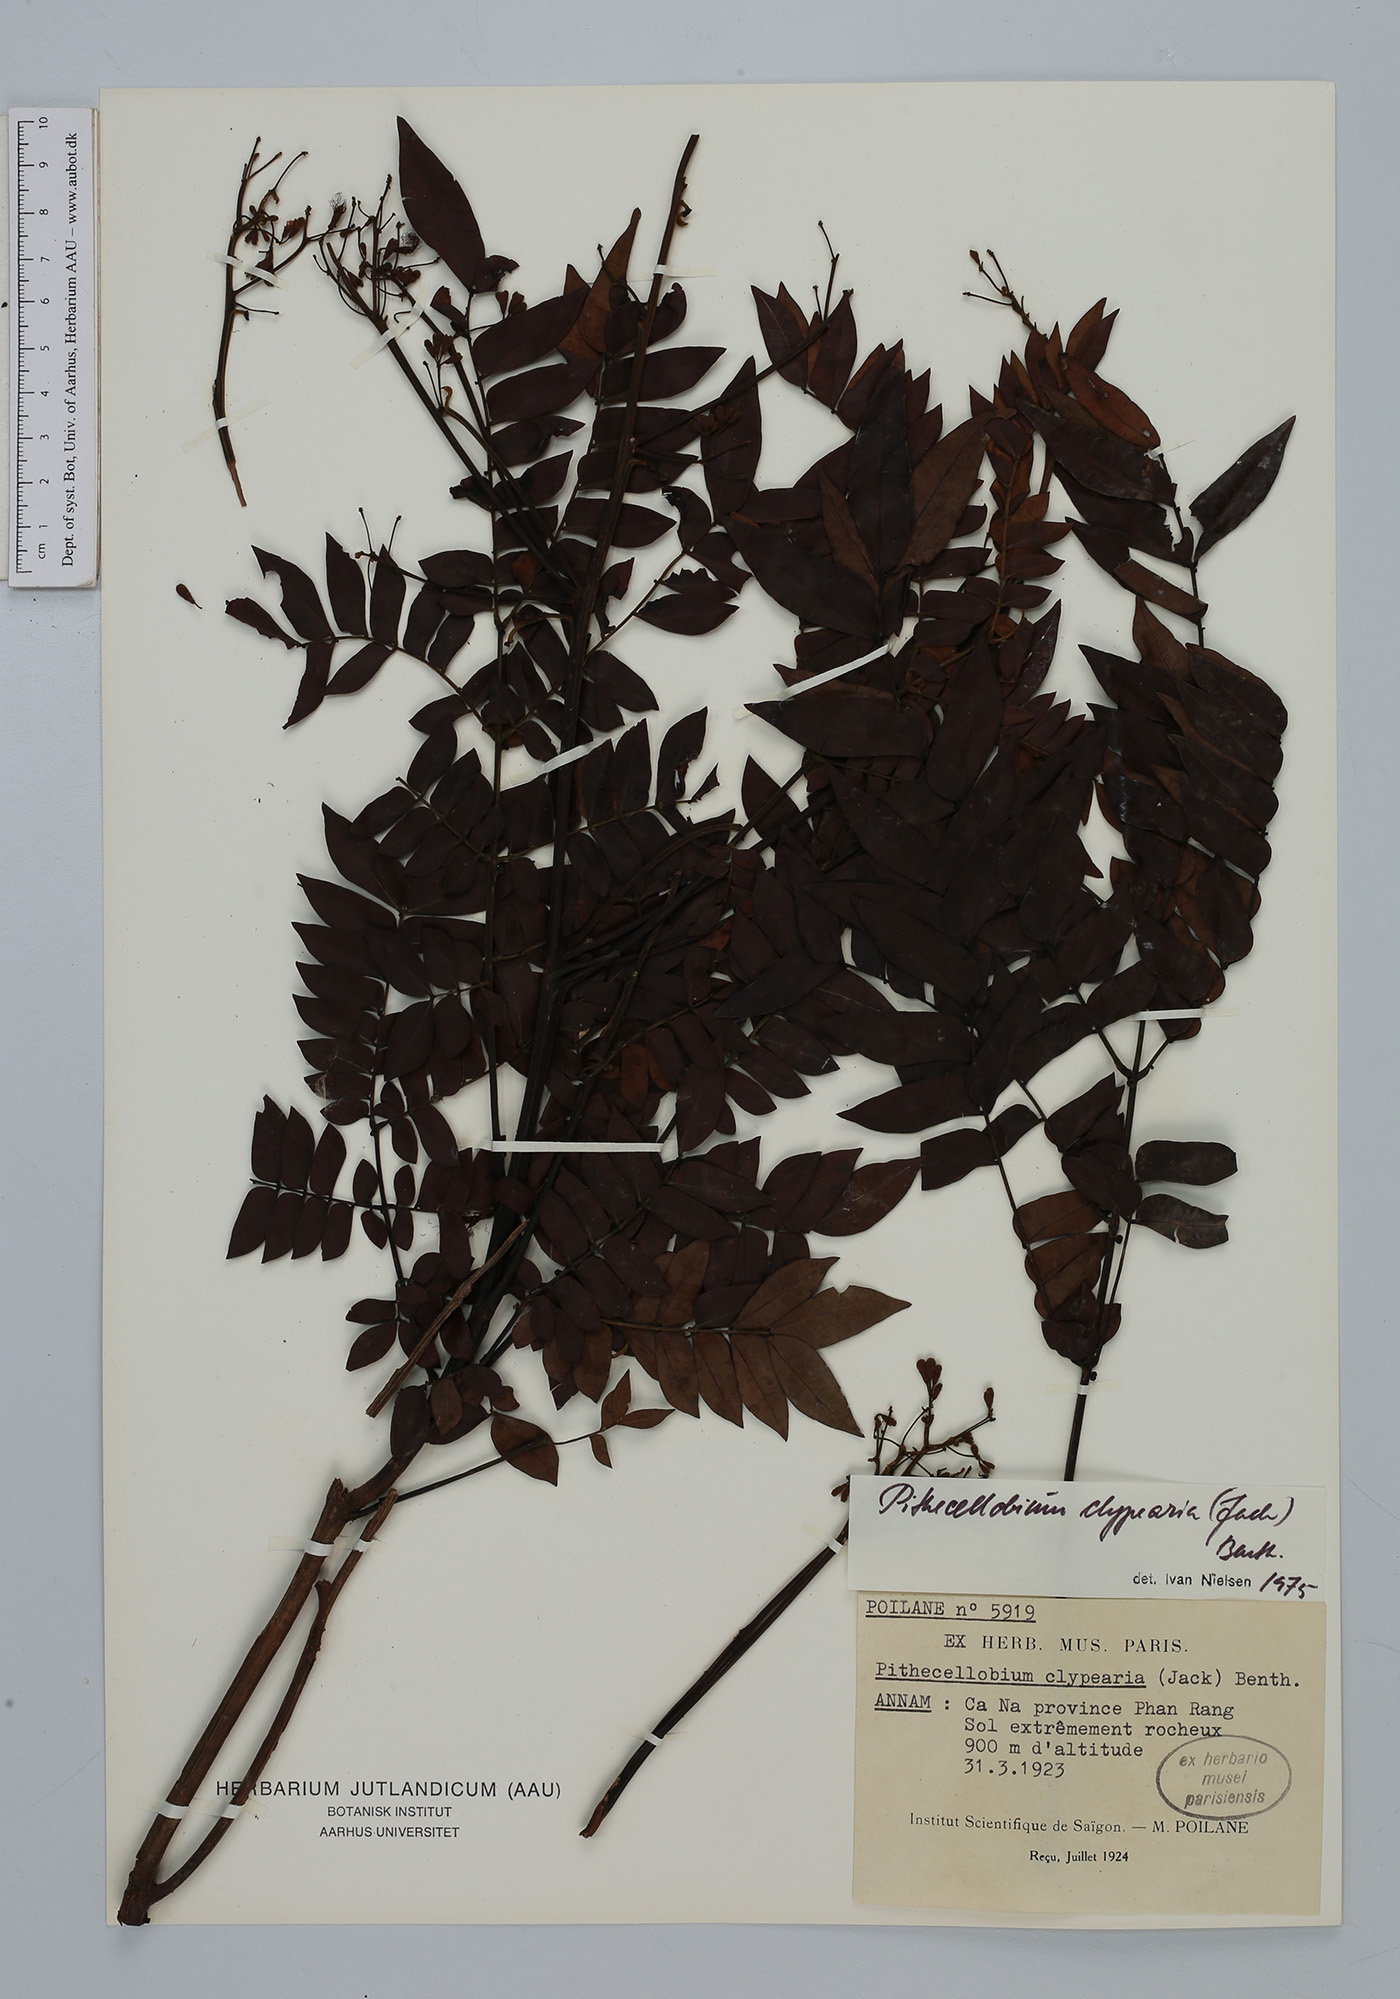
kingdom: Plantae
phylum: Tracheophyta
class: Magnoliopsida
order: Fabales
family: Fabaceae
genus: Archidendron
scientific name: Archidendron clypearia
